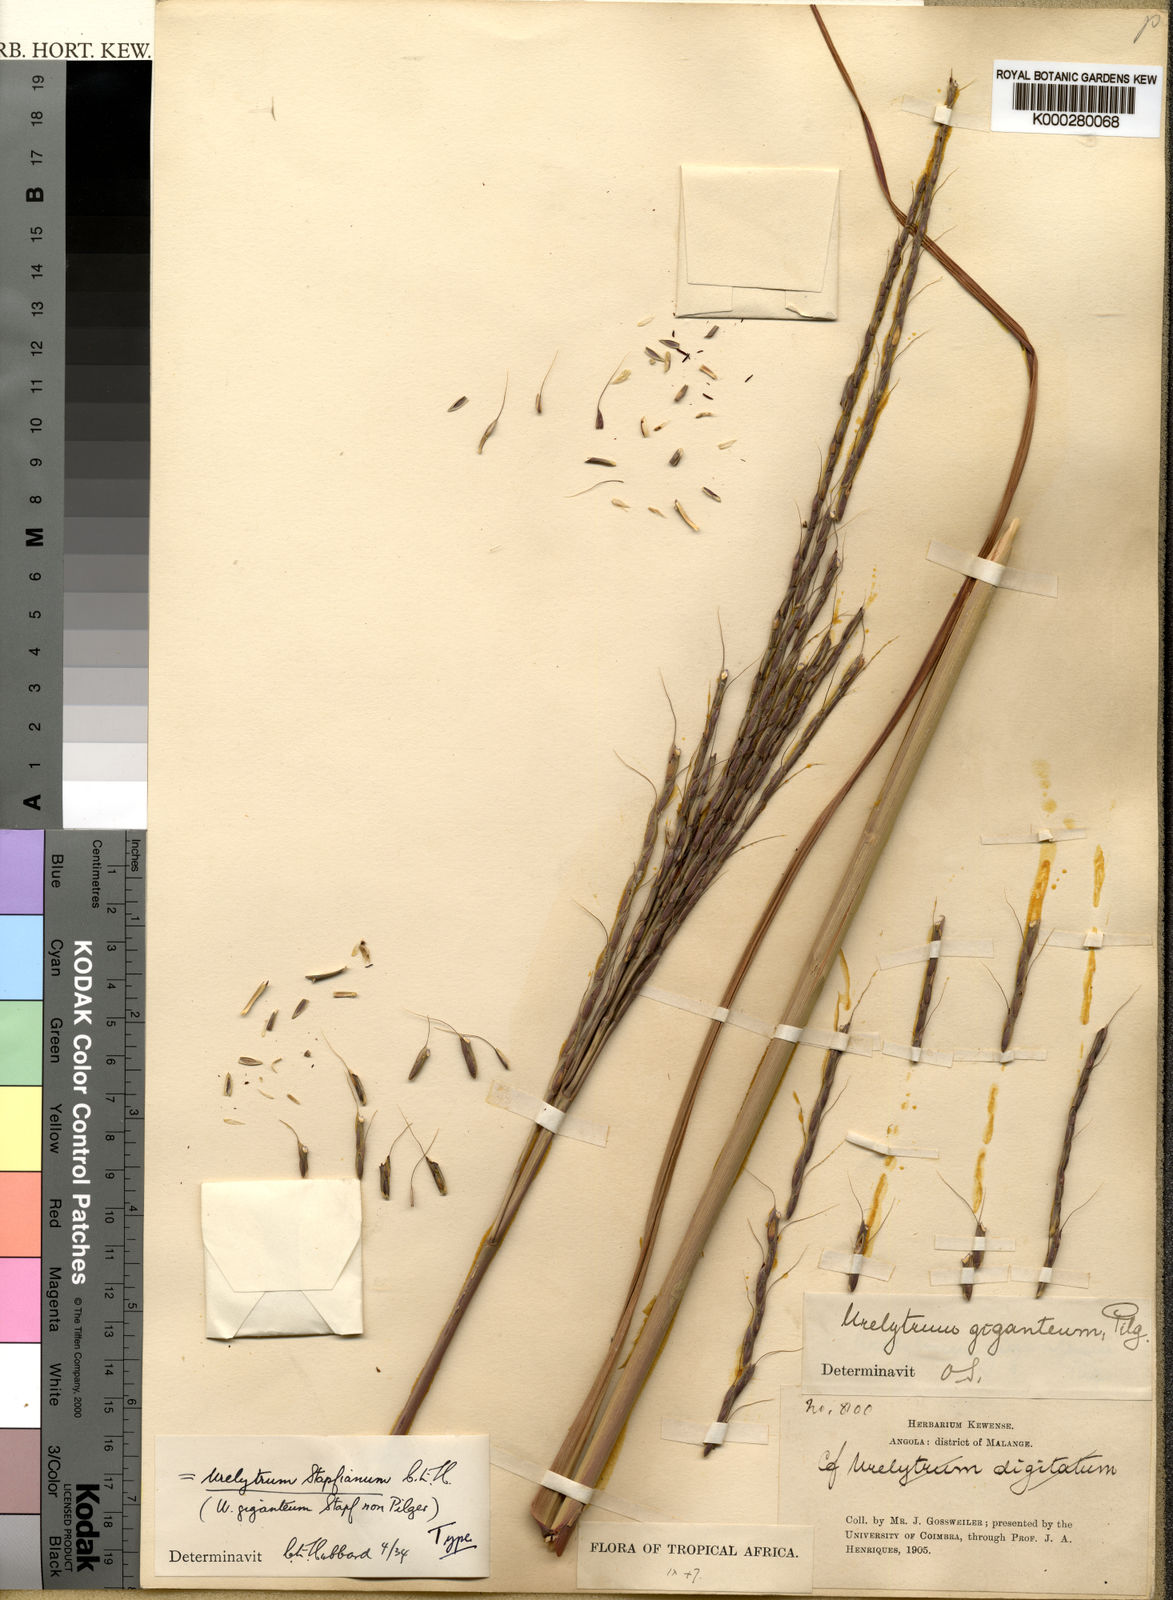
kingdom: Plantae
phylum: Tracheophyta
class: Liliopsida
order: Poales
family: Poaceae
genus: Urelytrum
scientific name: Urelytrum digitatum
